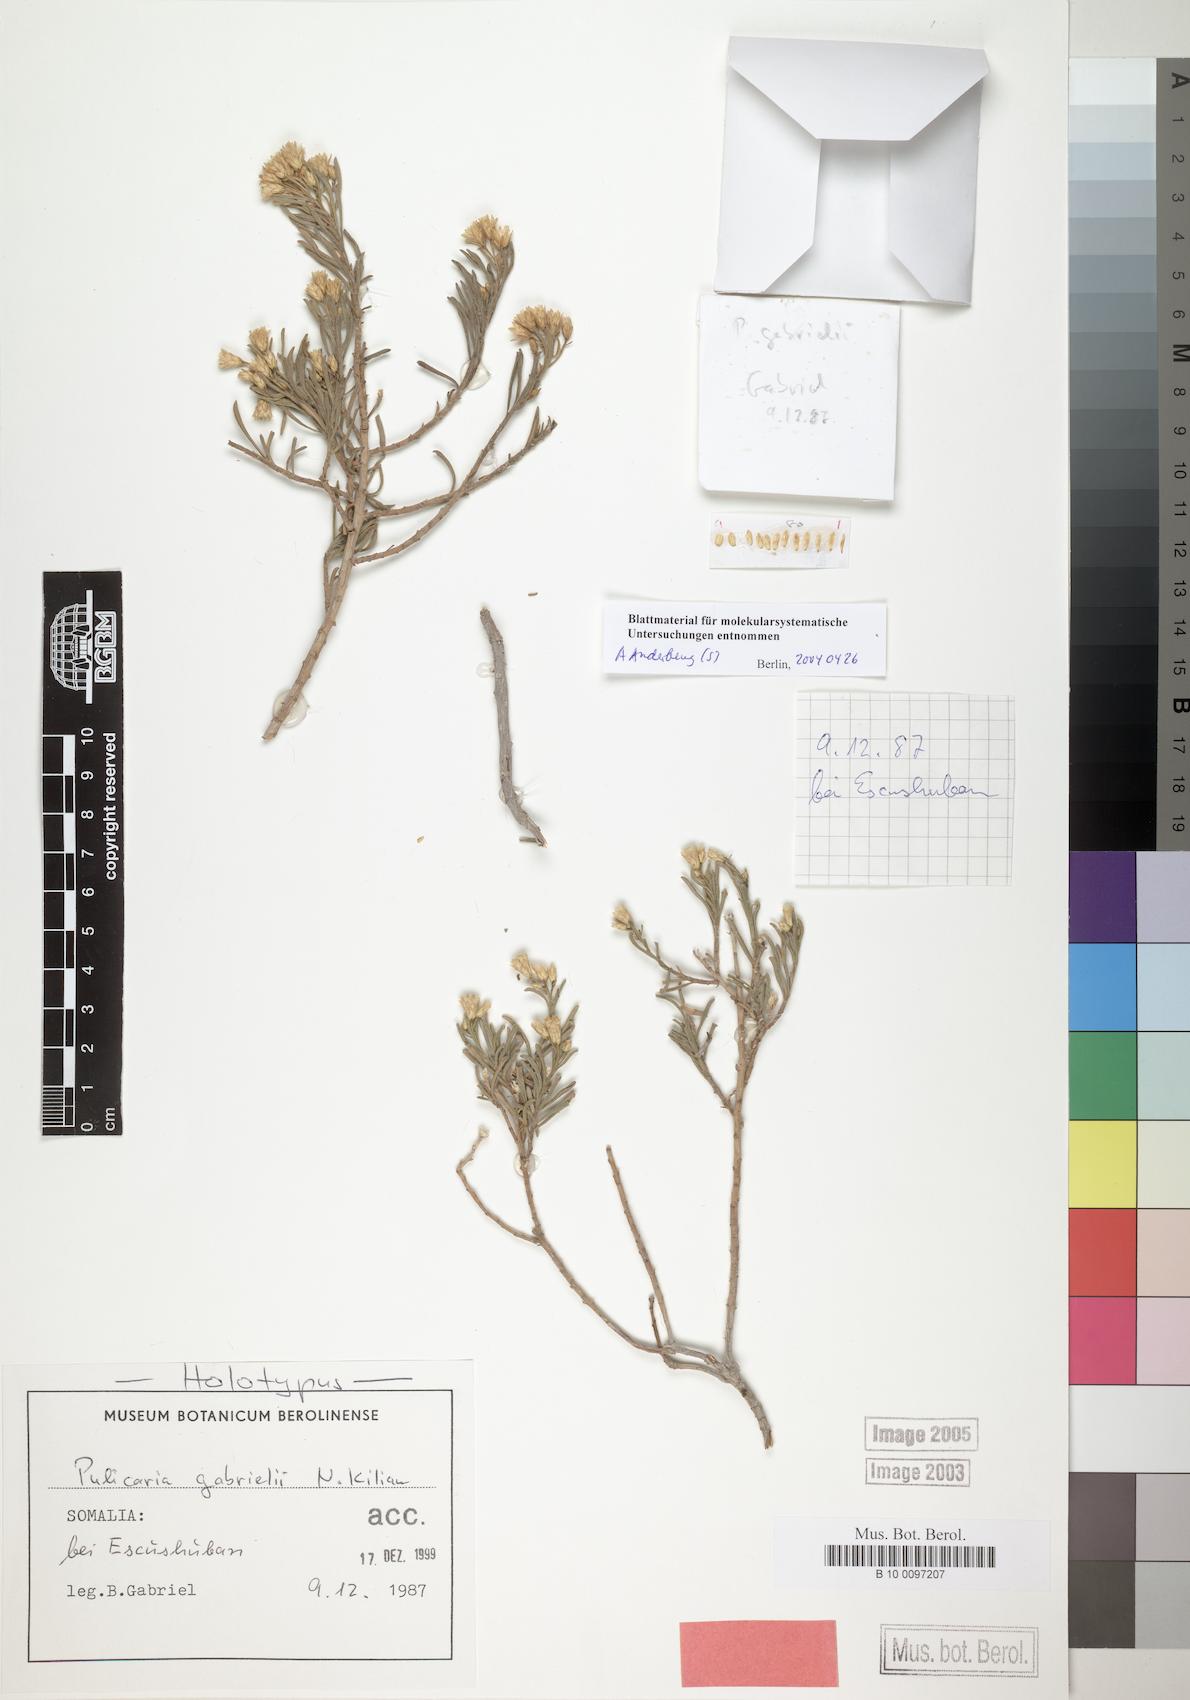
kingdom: Plantae
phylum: Tracheophyta
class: Magnoliopsida
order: Asterales
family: Asteraceae
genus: Pulicaria
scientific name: Pulicaria gabrielii
